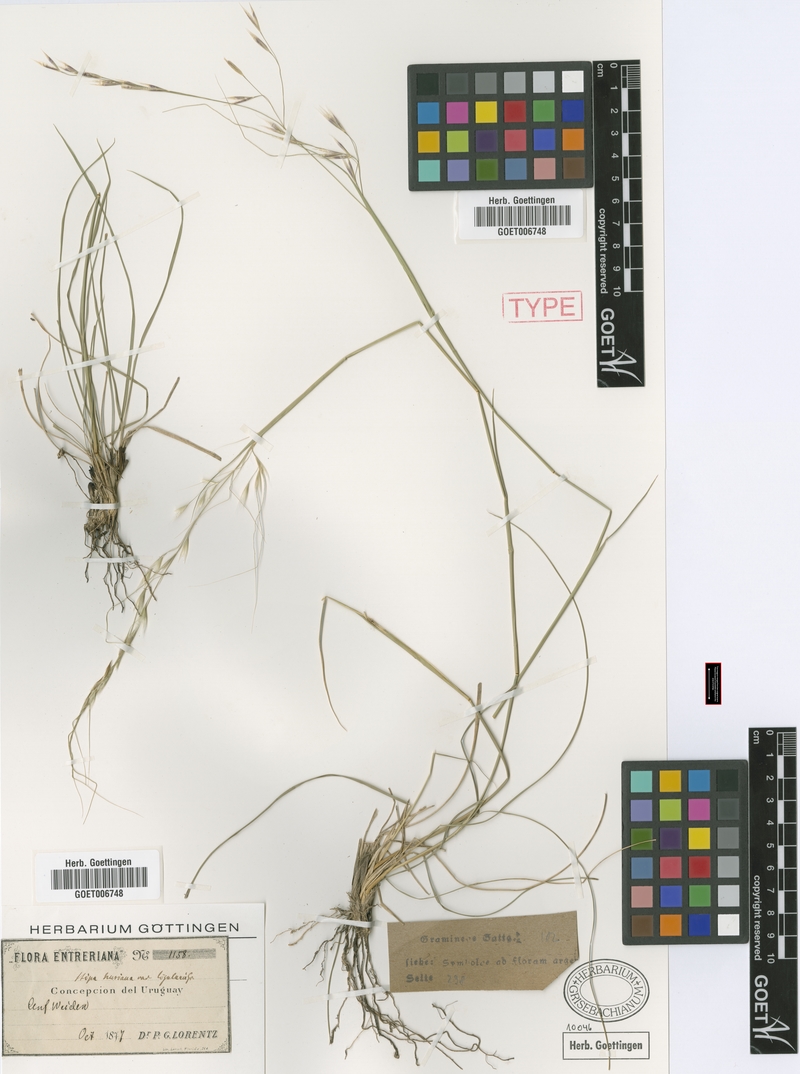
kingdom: Plantae
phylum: Tracheophyta
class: Liliopsida
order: Poales
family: Poaceae
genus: Nassella
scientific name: Nassella neesiana
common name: American needle-grass
